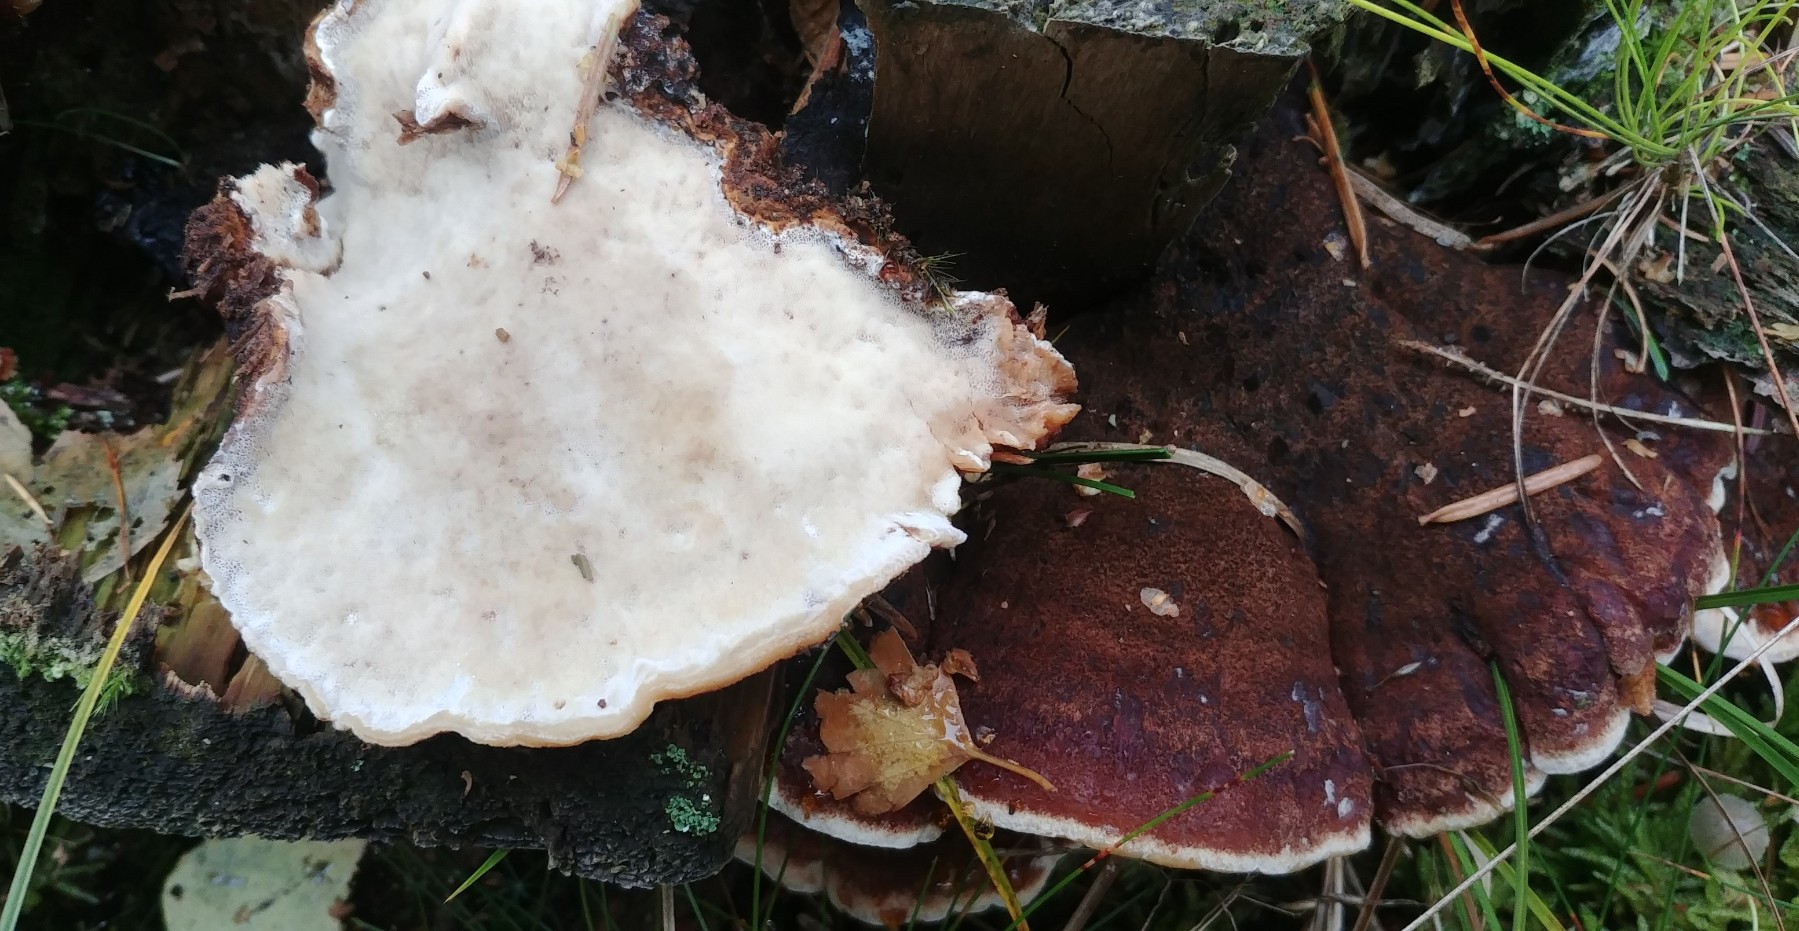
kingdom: Fungi
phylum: Basidiomycota
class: Agaricomycetes
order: Polyporales
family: Ischnodermataceae
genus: Ischnoderma
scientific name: Ischnoderma benzoinum
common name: gran-tjæreporesvamp
